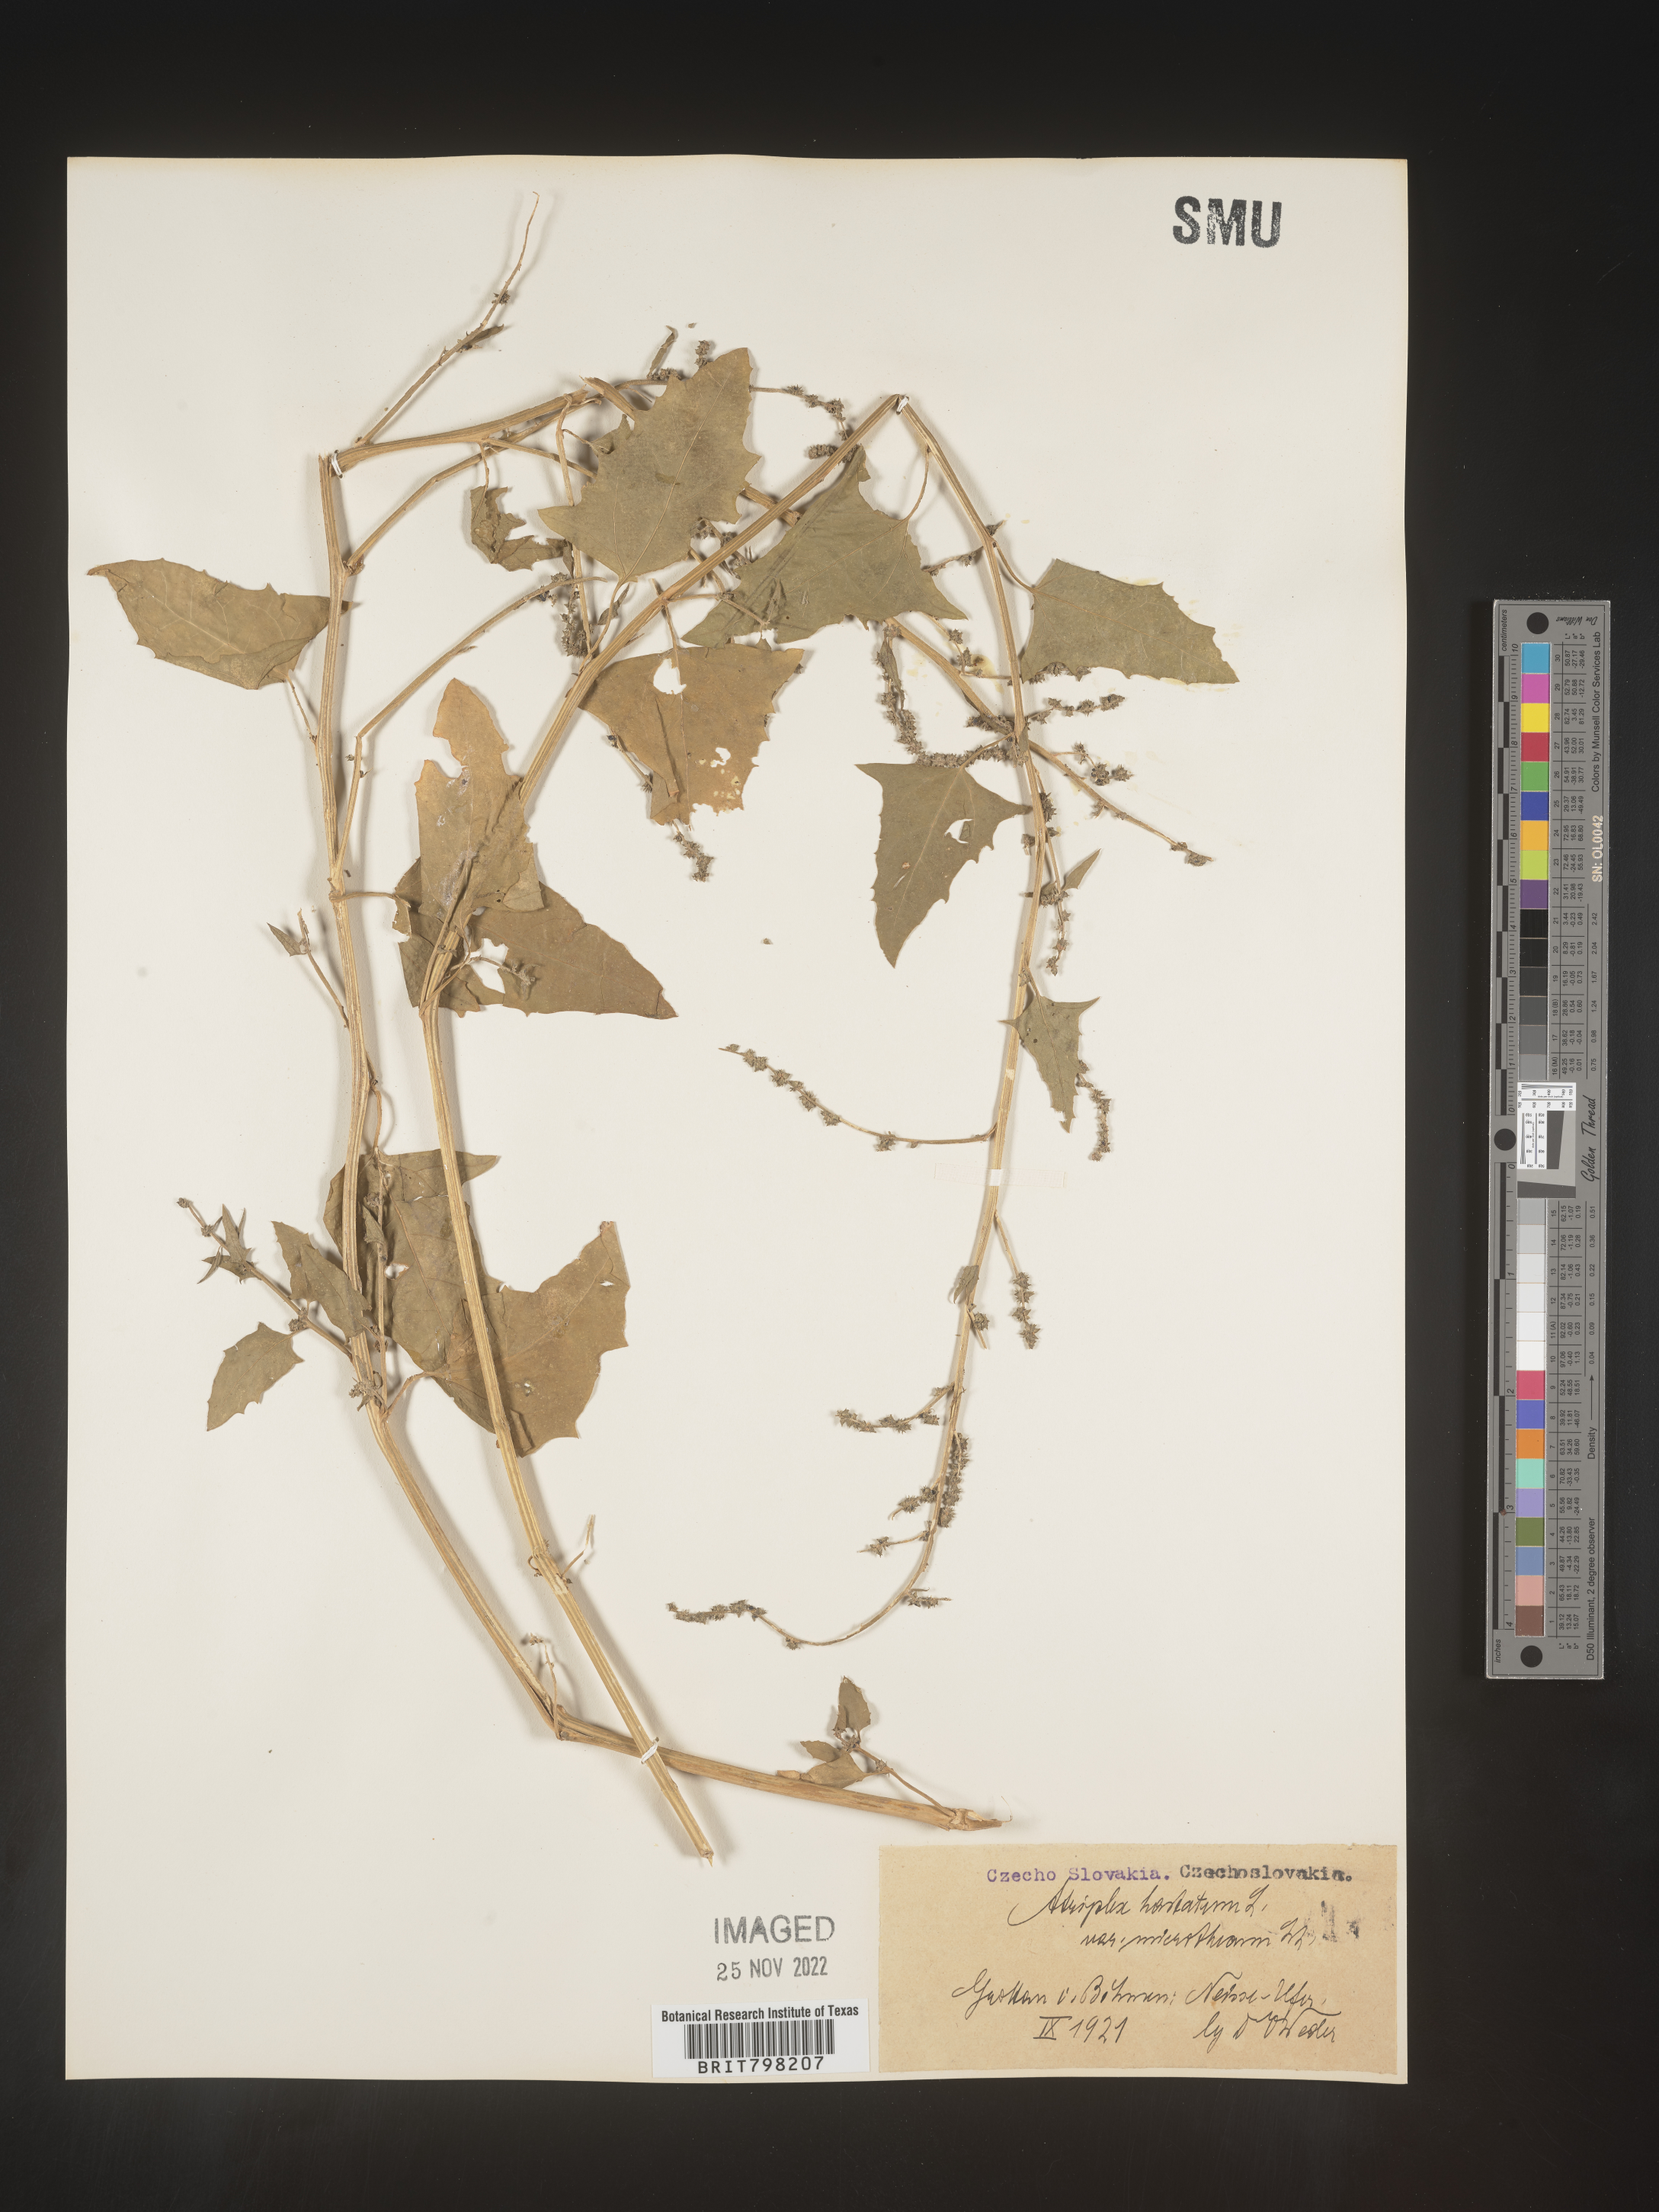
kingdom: Plantae
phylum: Tracheophyta
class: Magnoliopsida
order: Caryophyllales
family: Amaranthaceae
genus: Atriplex
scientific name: Atriplex
